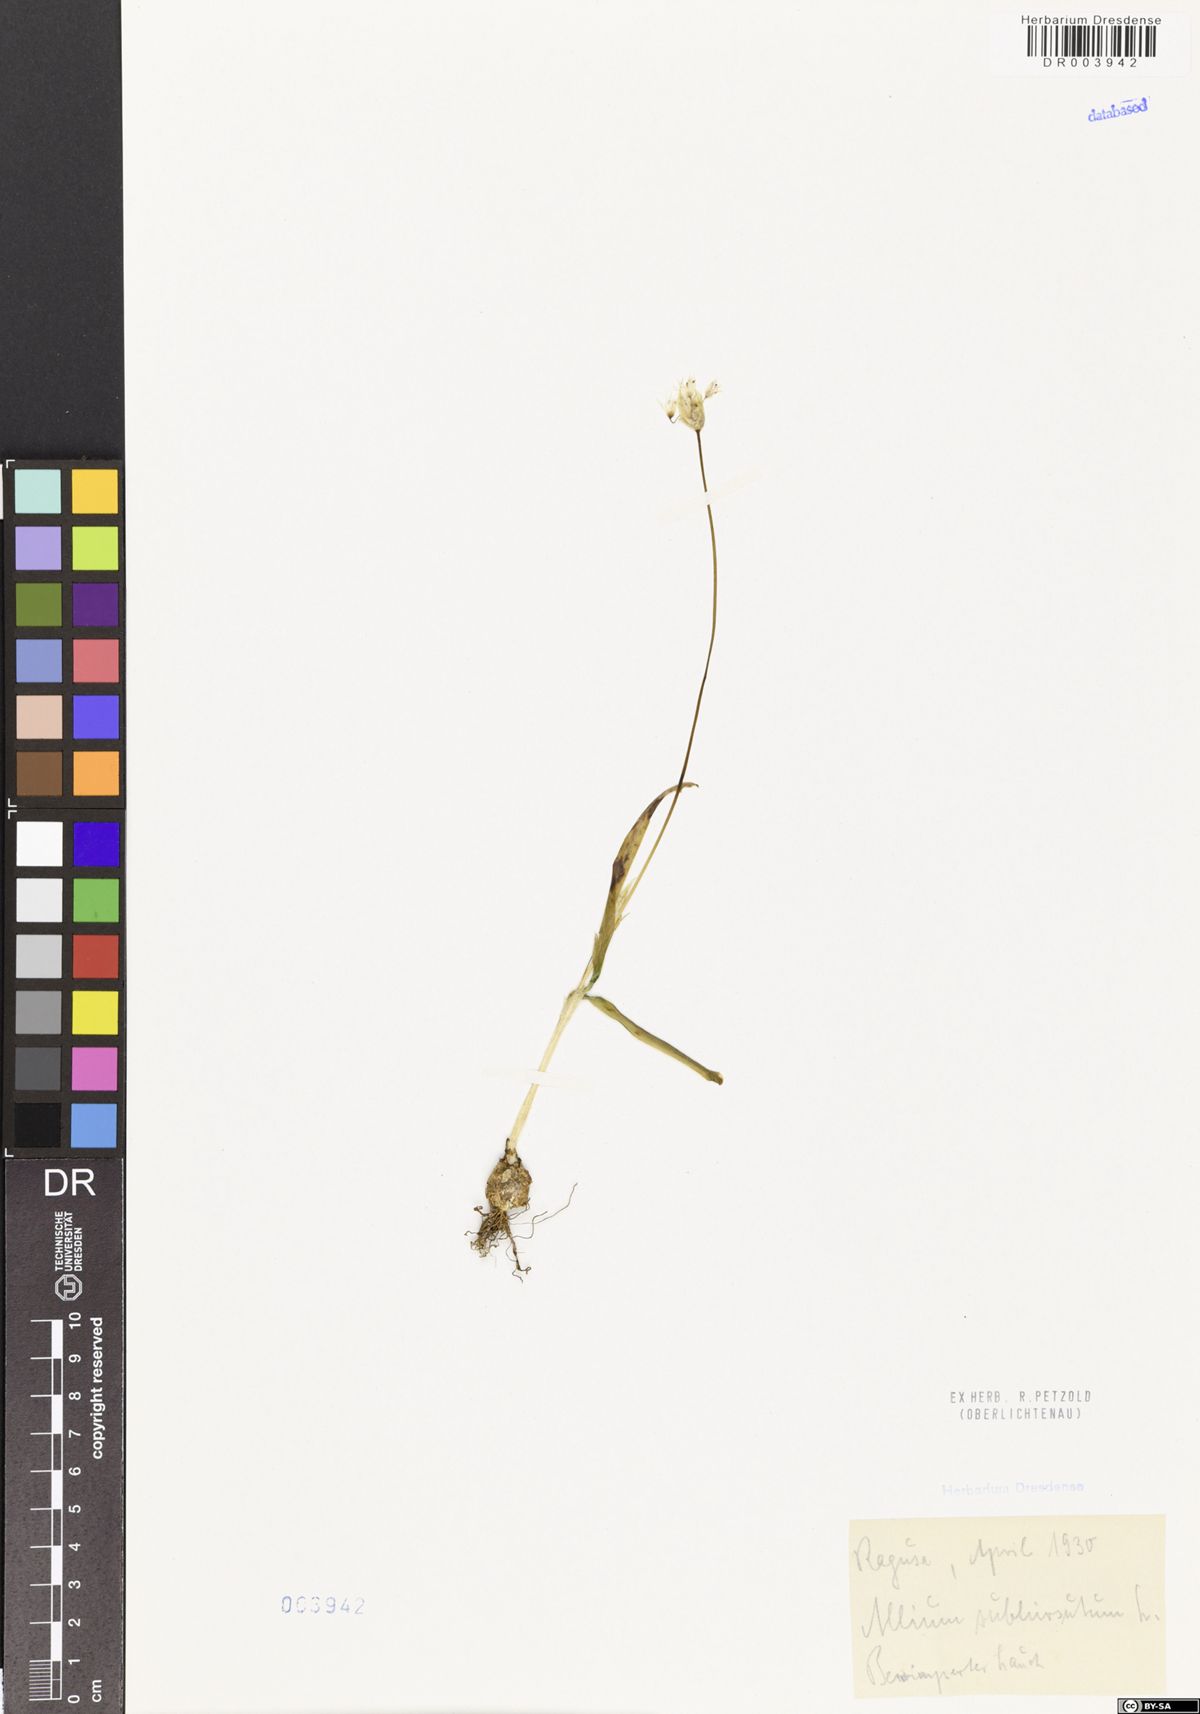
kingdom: Plantae
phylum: Tracheophyta
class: Liliopsida
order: Asparagales
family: Amaryllidaceae
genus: Allium
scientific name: Allium subhirsutum
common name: Hairy garlic
